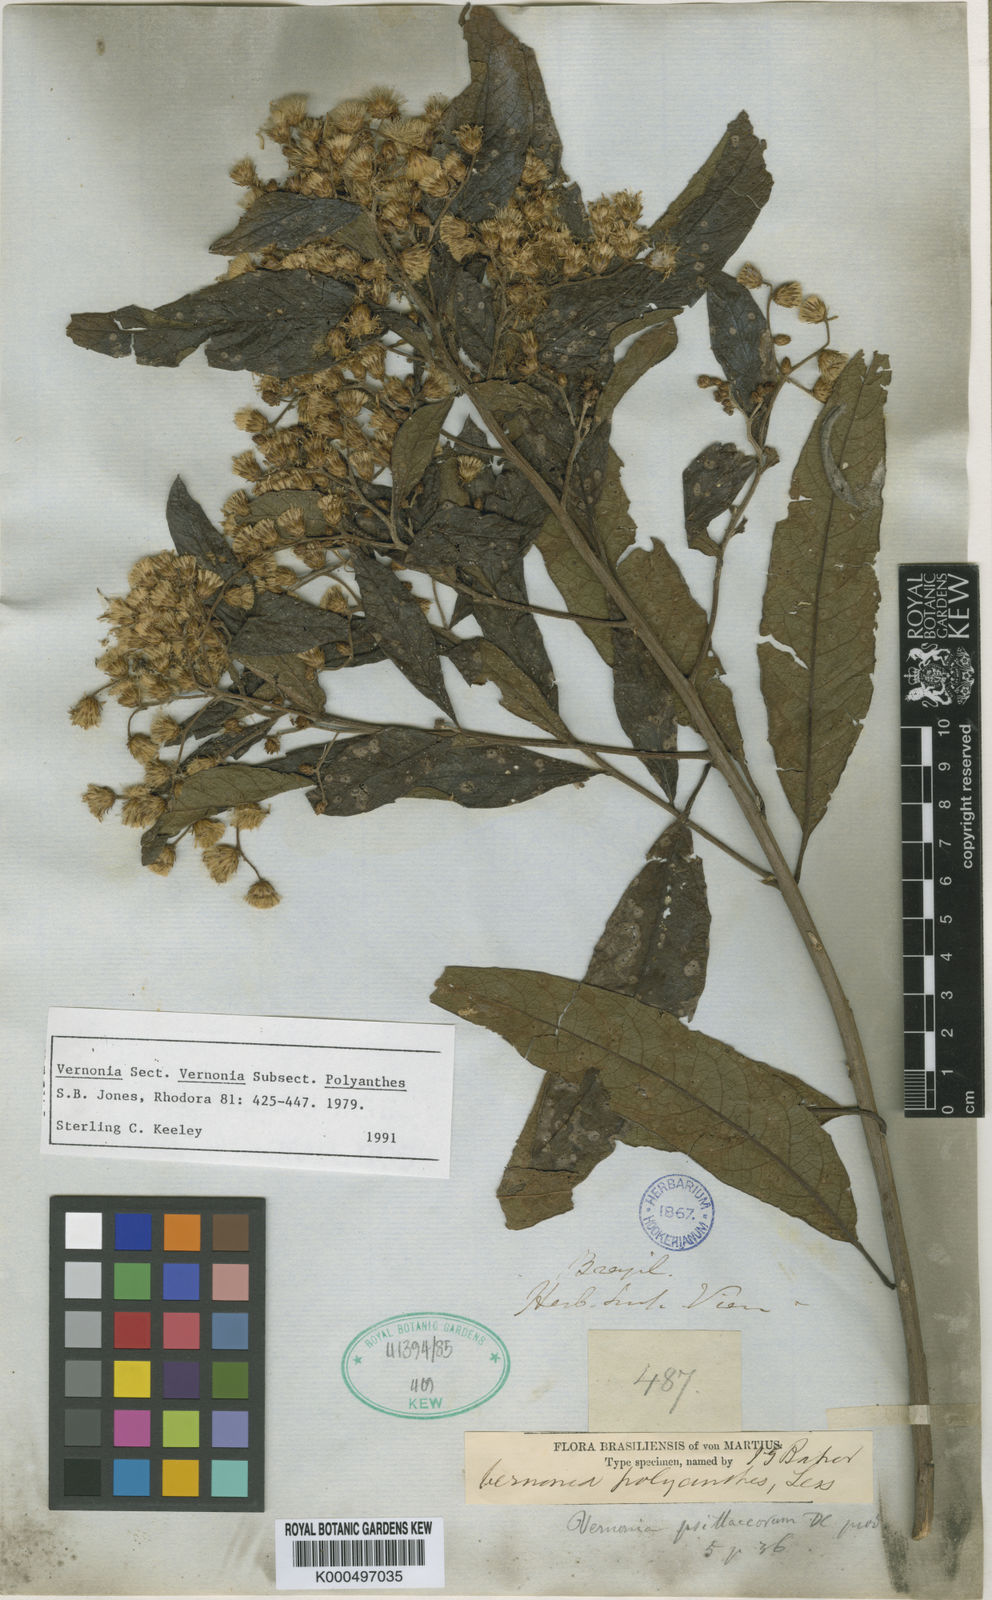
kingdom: Plantae
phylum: Tracheophyta
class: Magnoliopsida
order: Asterales
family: Asteraceae
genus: Vernonanthura
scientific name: Vernonanthura polyanthes
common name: Tree aster
